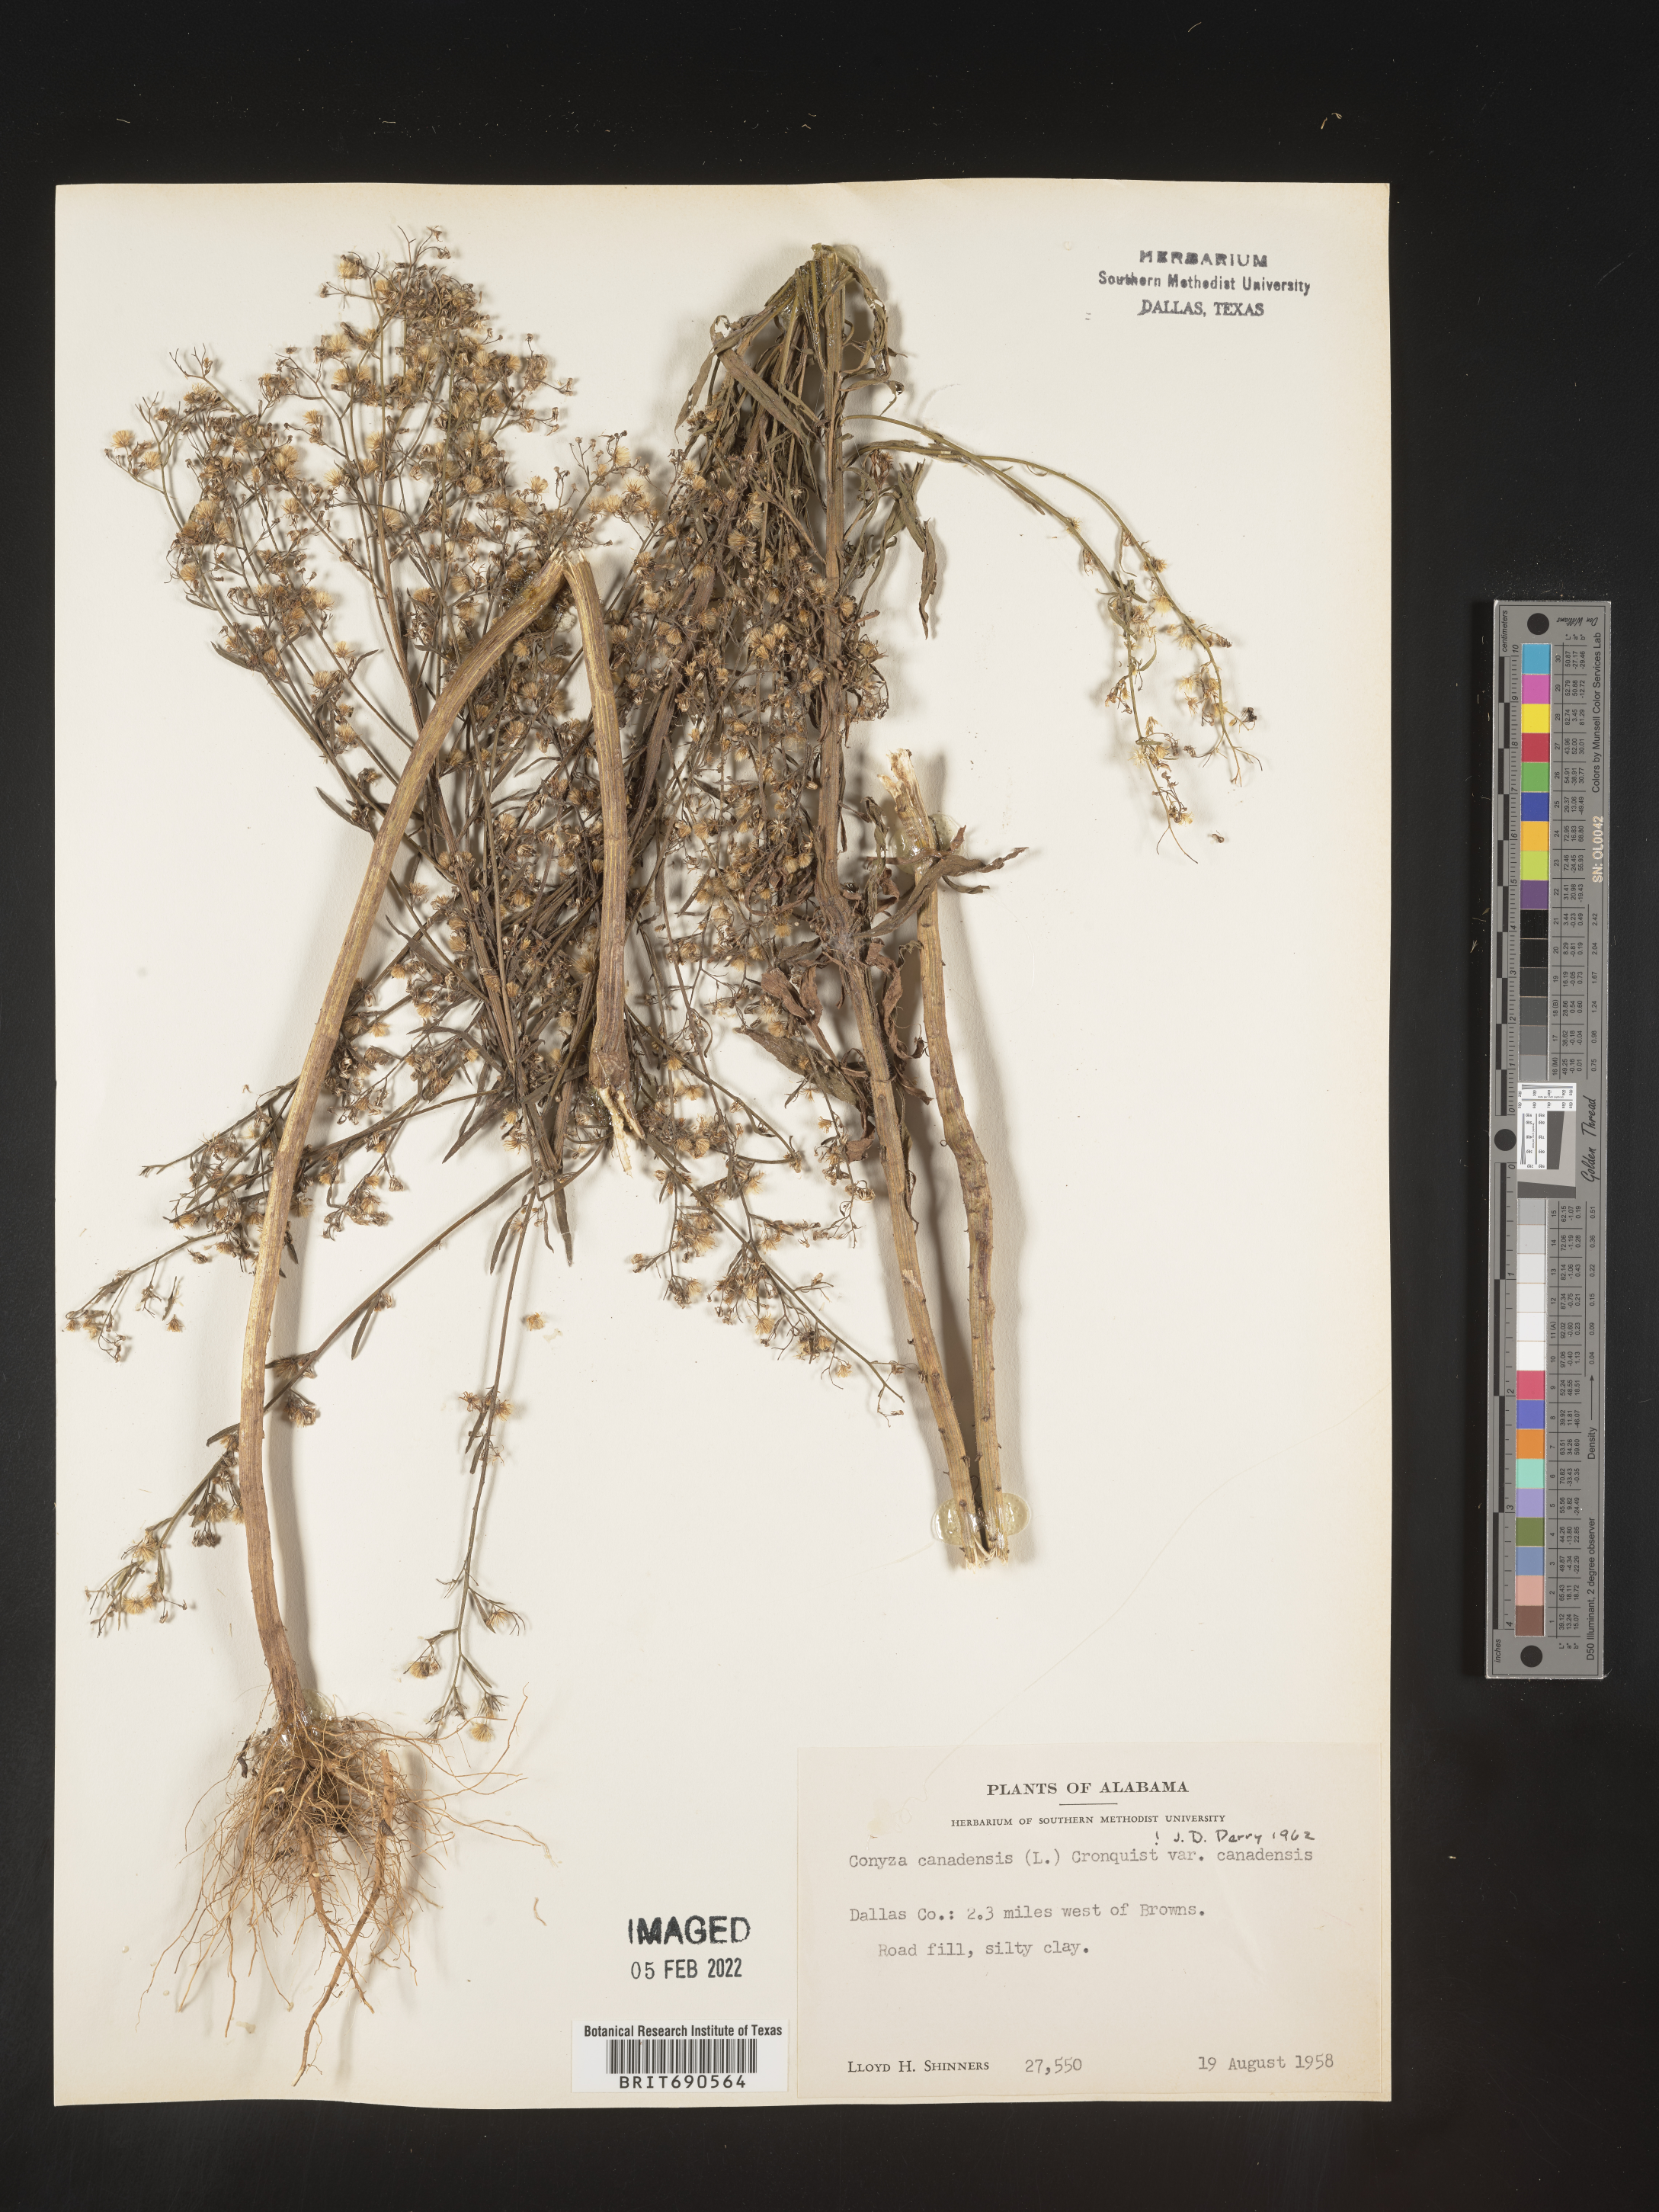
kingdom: Plantae
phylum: Tracheophyta
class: Magnoliopsida
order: Asterales
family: Asteraceae
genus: Erigeron
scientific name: Erigeron canadensis
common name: Canadian fleabane
